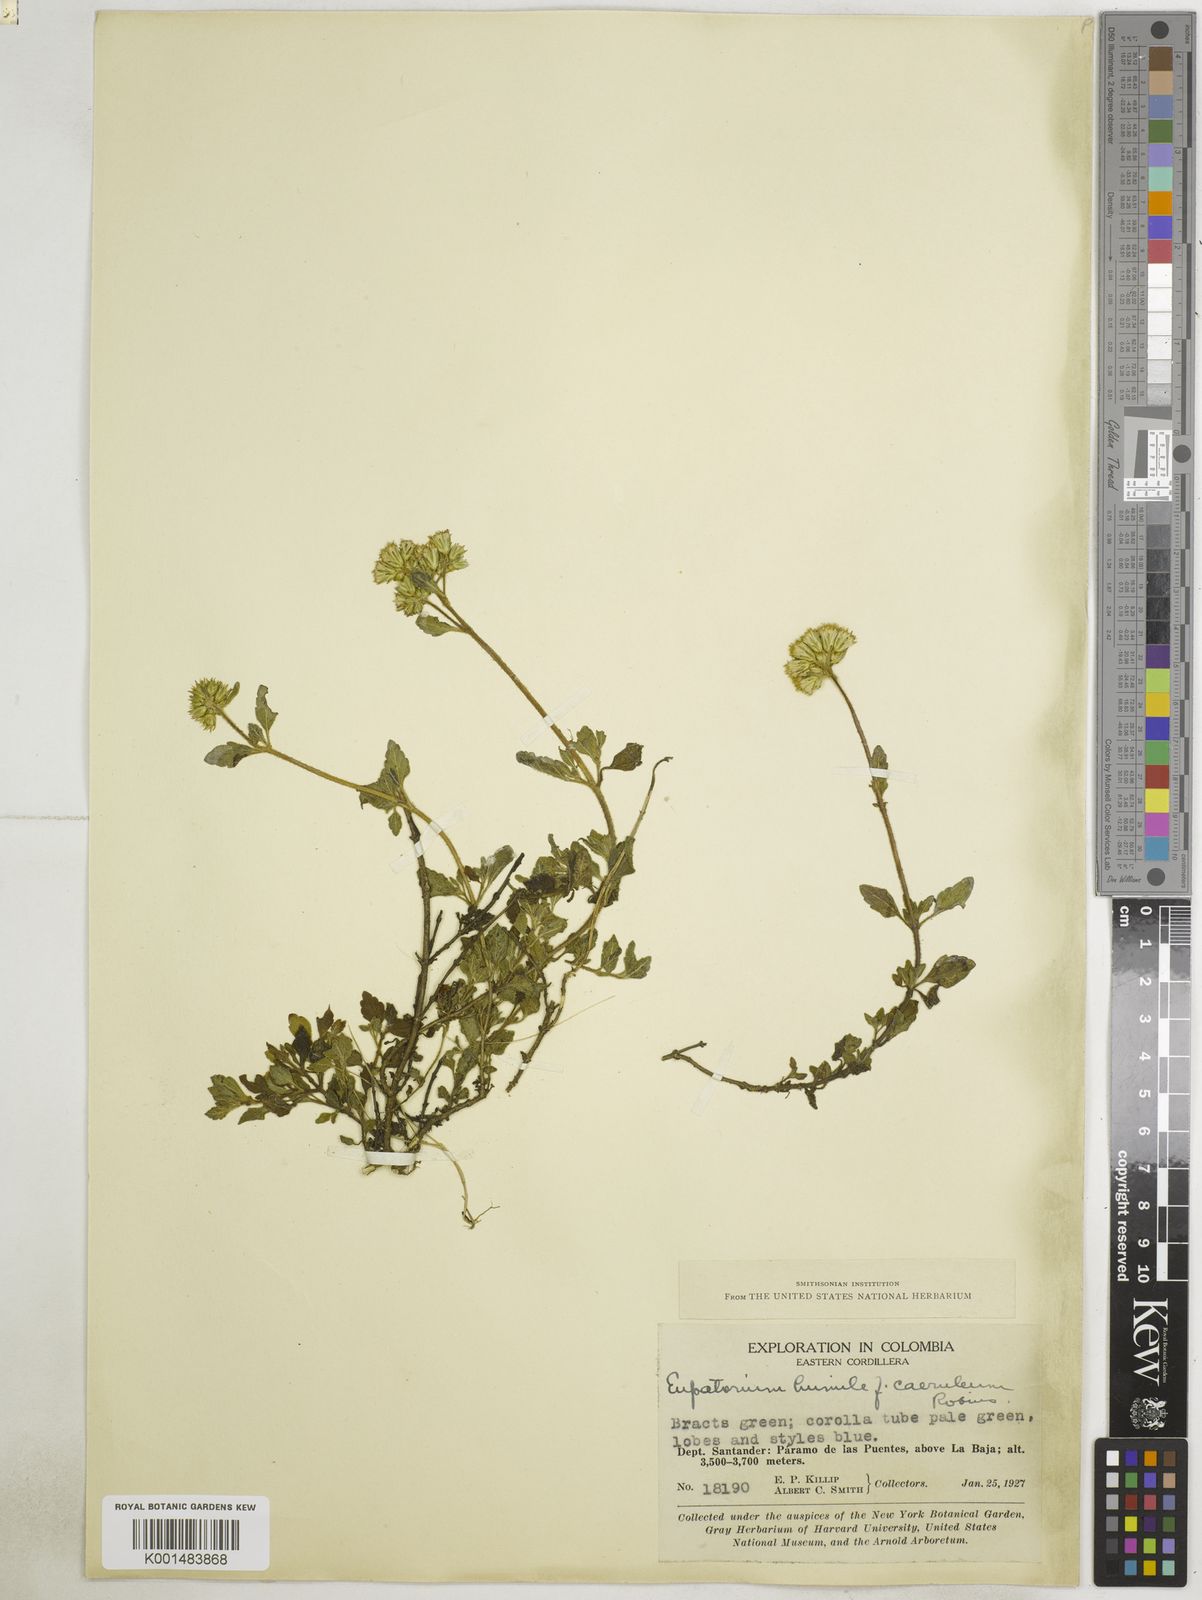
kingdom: Plantae
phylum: Tracheophyta
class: Magnoliopsida
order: Asterales
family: Asteraceae
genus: Lourteigia
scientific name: Lourteigia humilis
